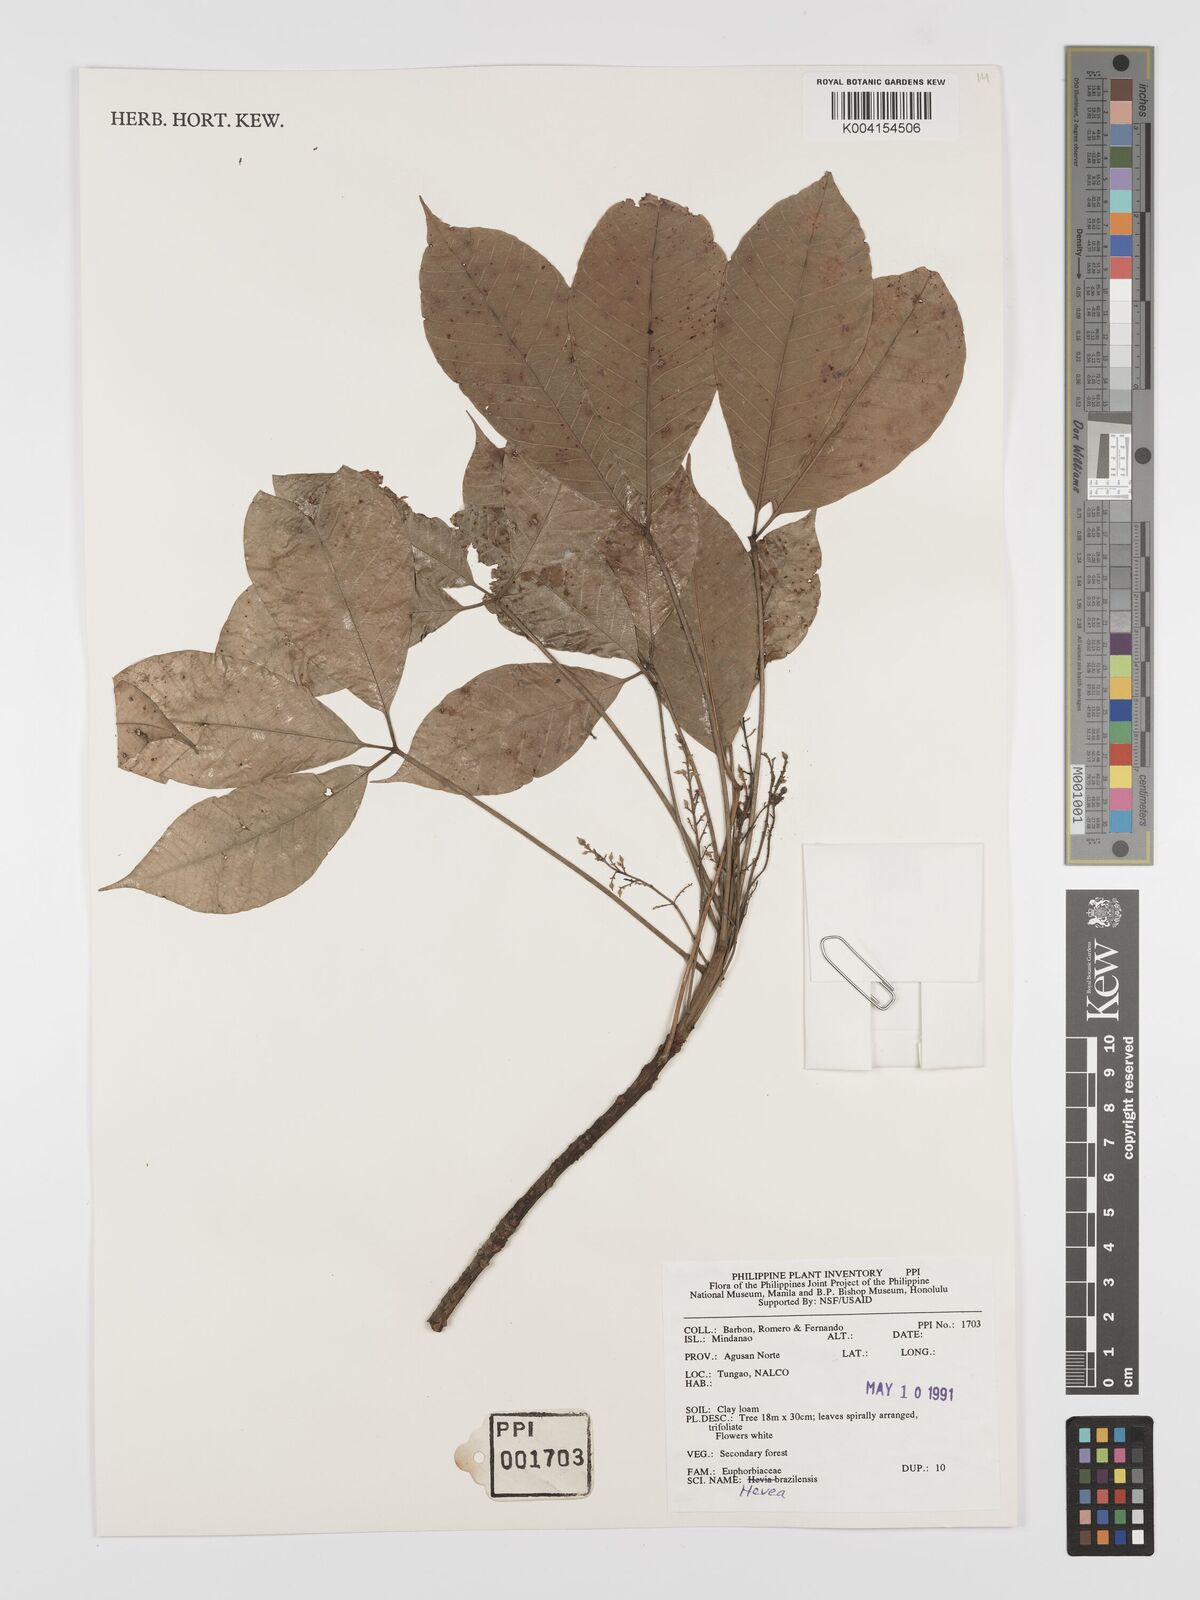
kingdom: Plantae
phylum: Tracheophyta
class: Magnoliopsida
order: Malpighiales
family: Euphorbiaceae
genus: Hevea
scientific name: Hevea brasiliensis
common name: Natural rubber
